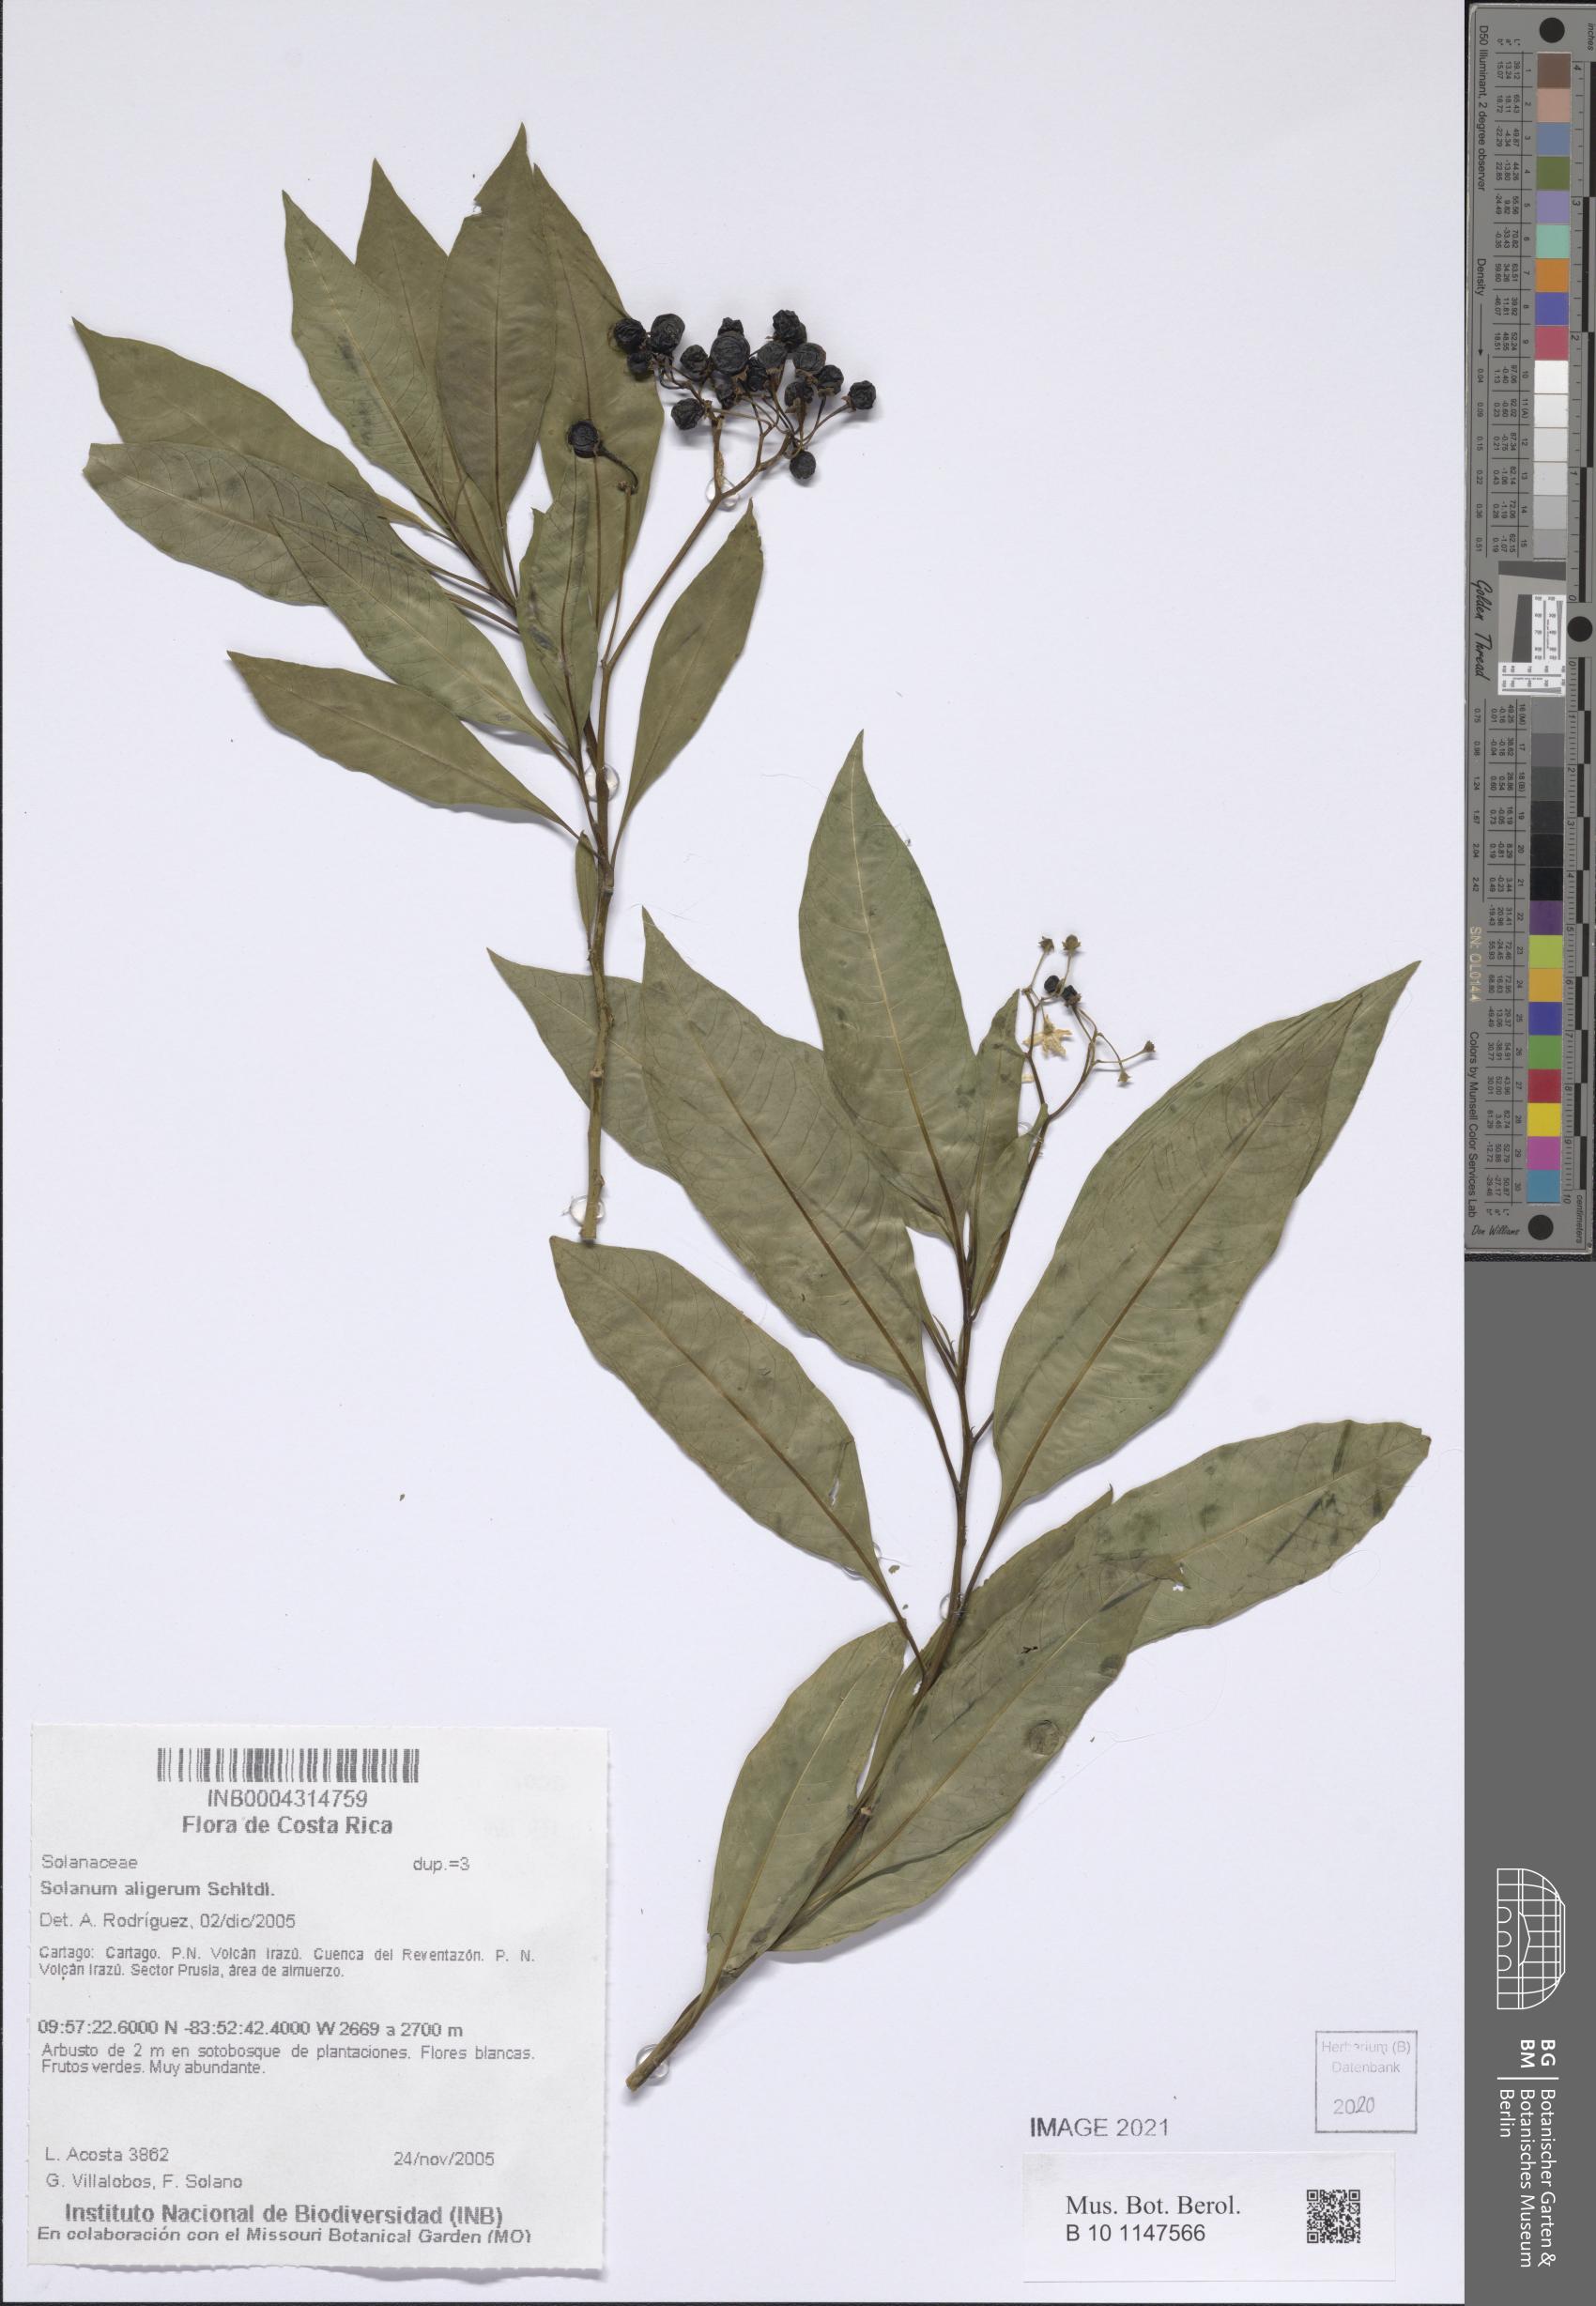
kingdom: Plantae
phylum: Tracheophyta
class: Magnoliopsida
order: Solanales
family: Solanaceae
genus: Solanum
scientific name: Solanum aligerum
